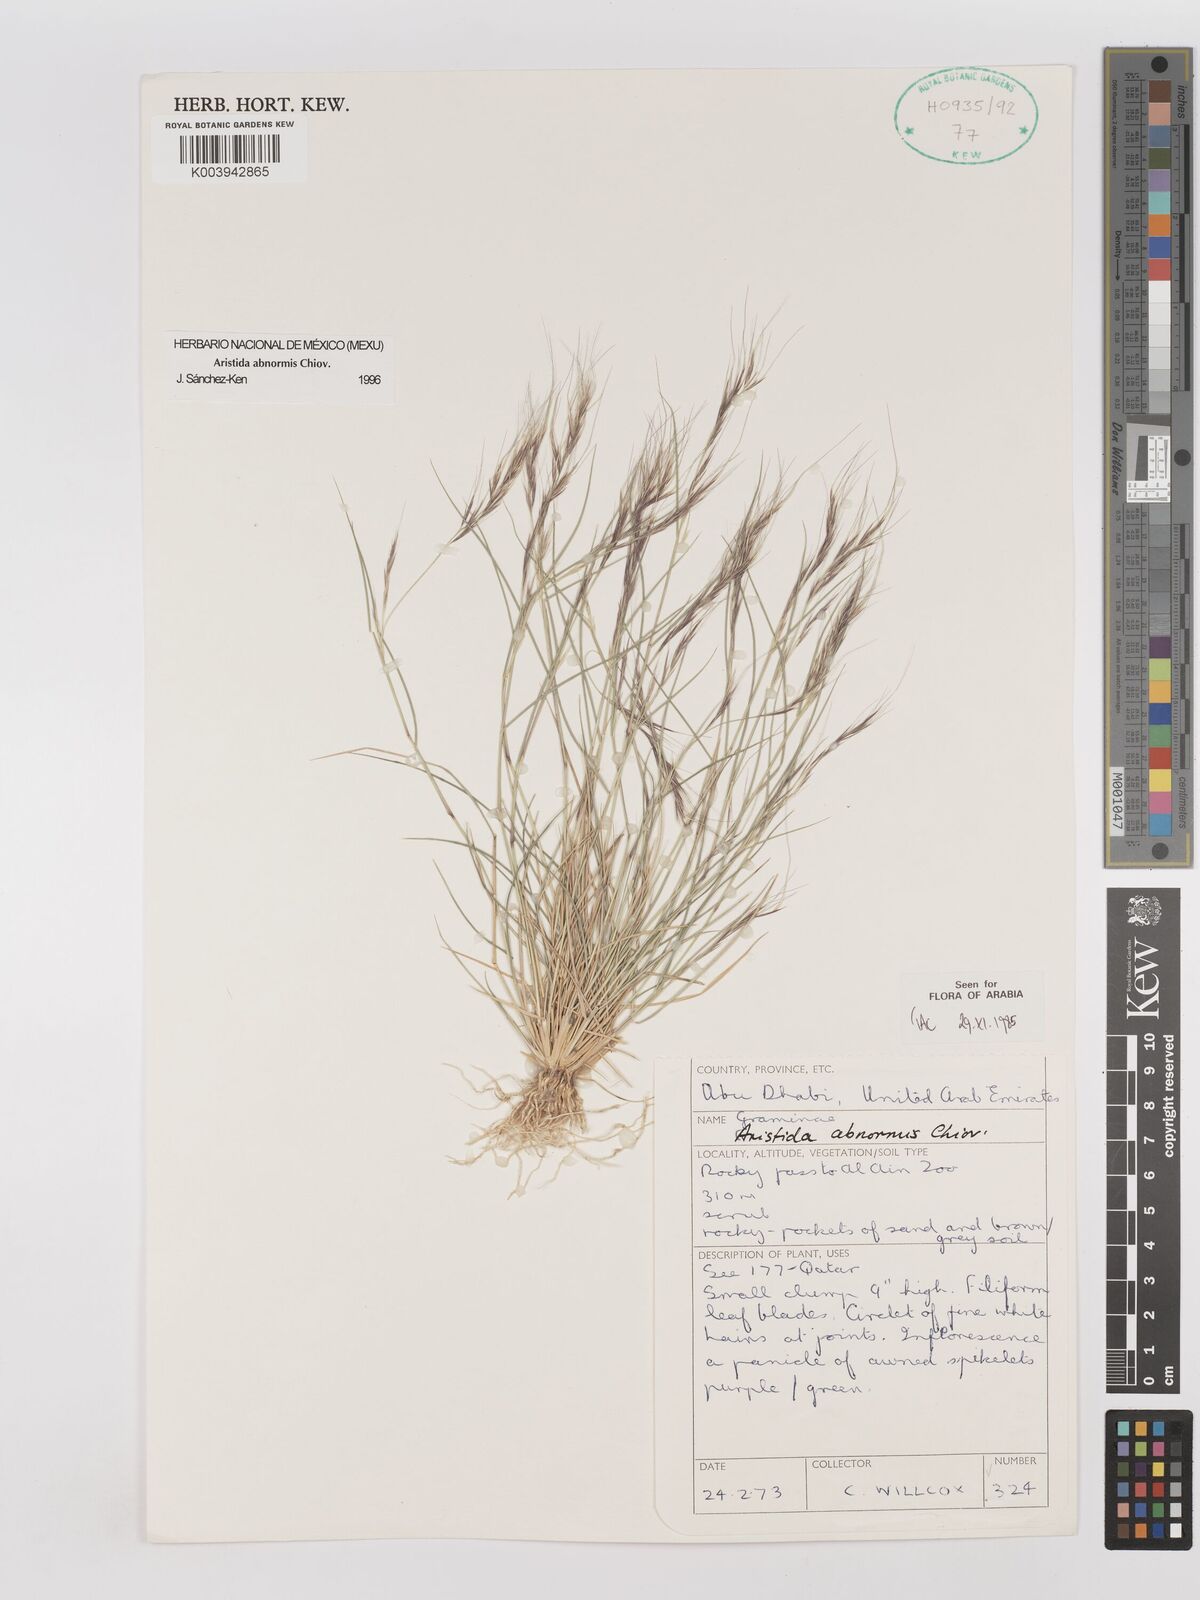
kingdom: Plantae
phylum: Tracheophyta
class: Liliopsida
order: Poales
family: Poaceae
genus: Aristida
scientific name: Aristida abnormis
